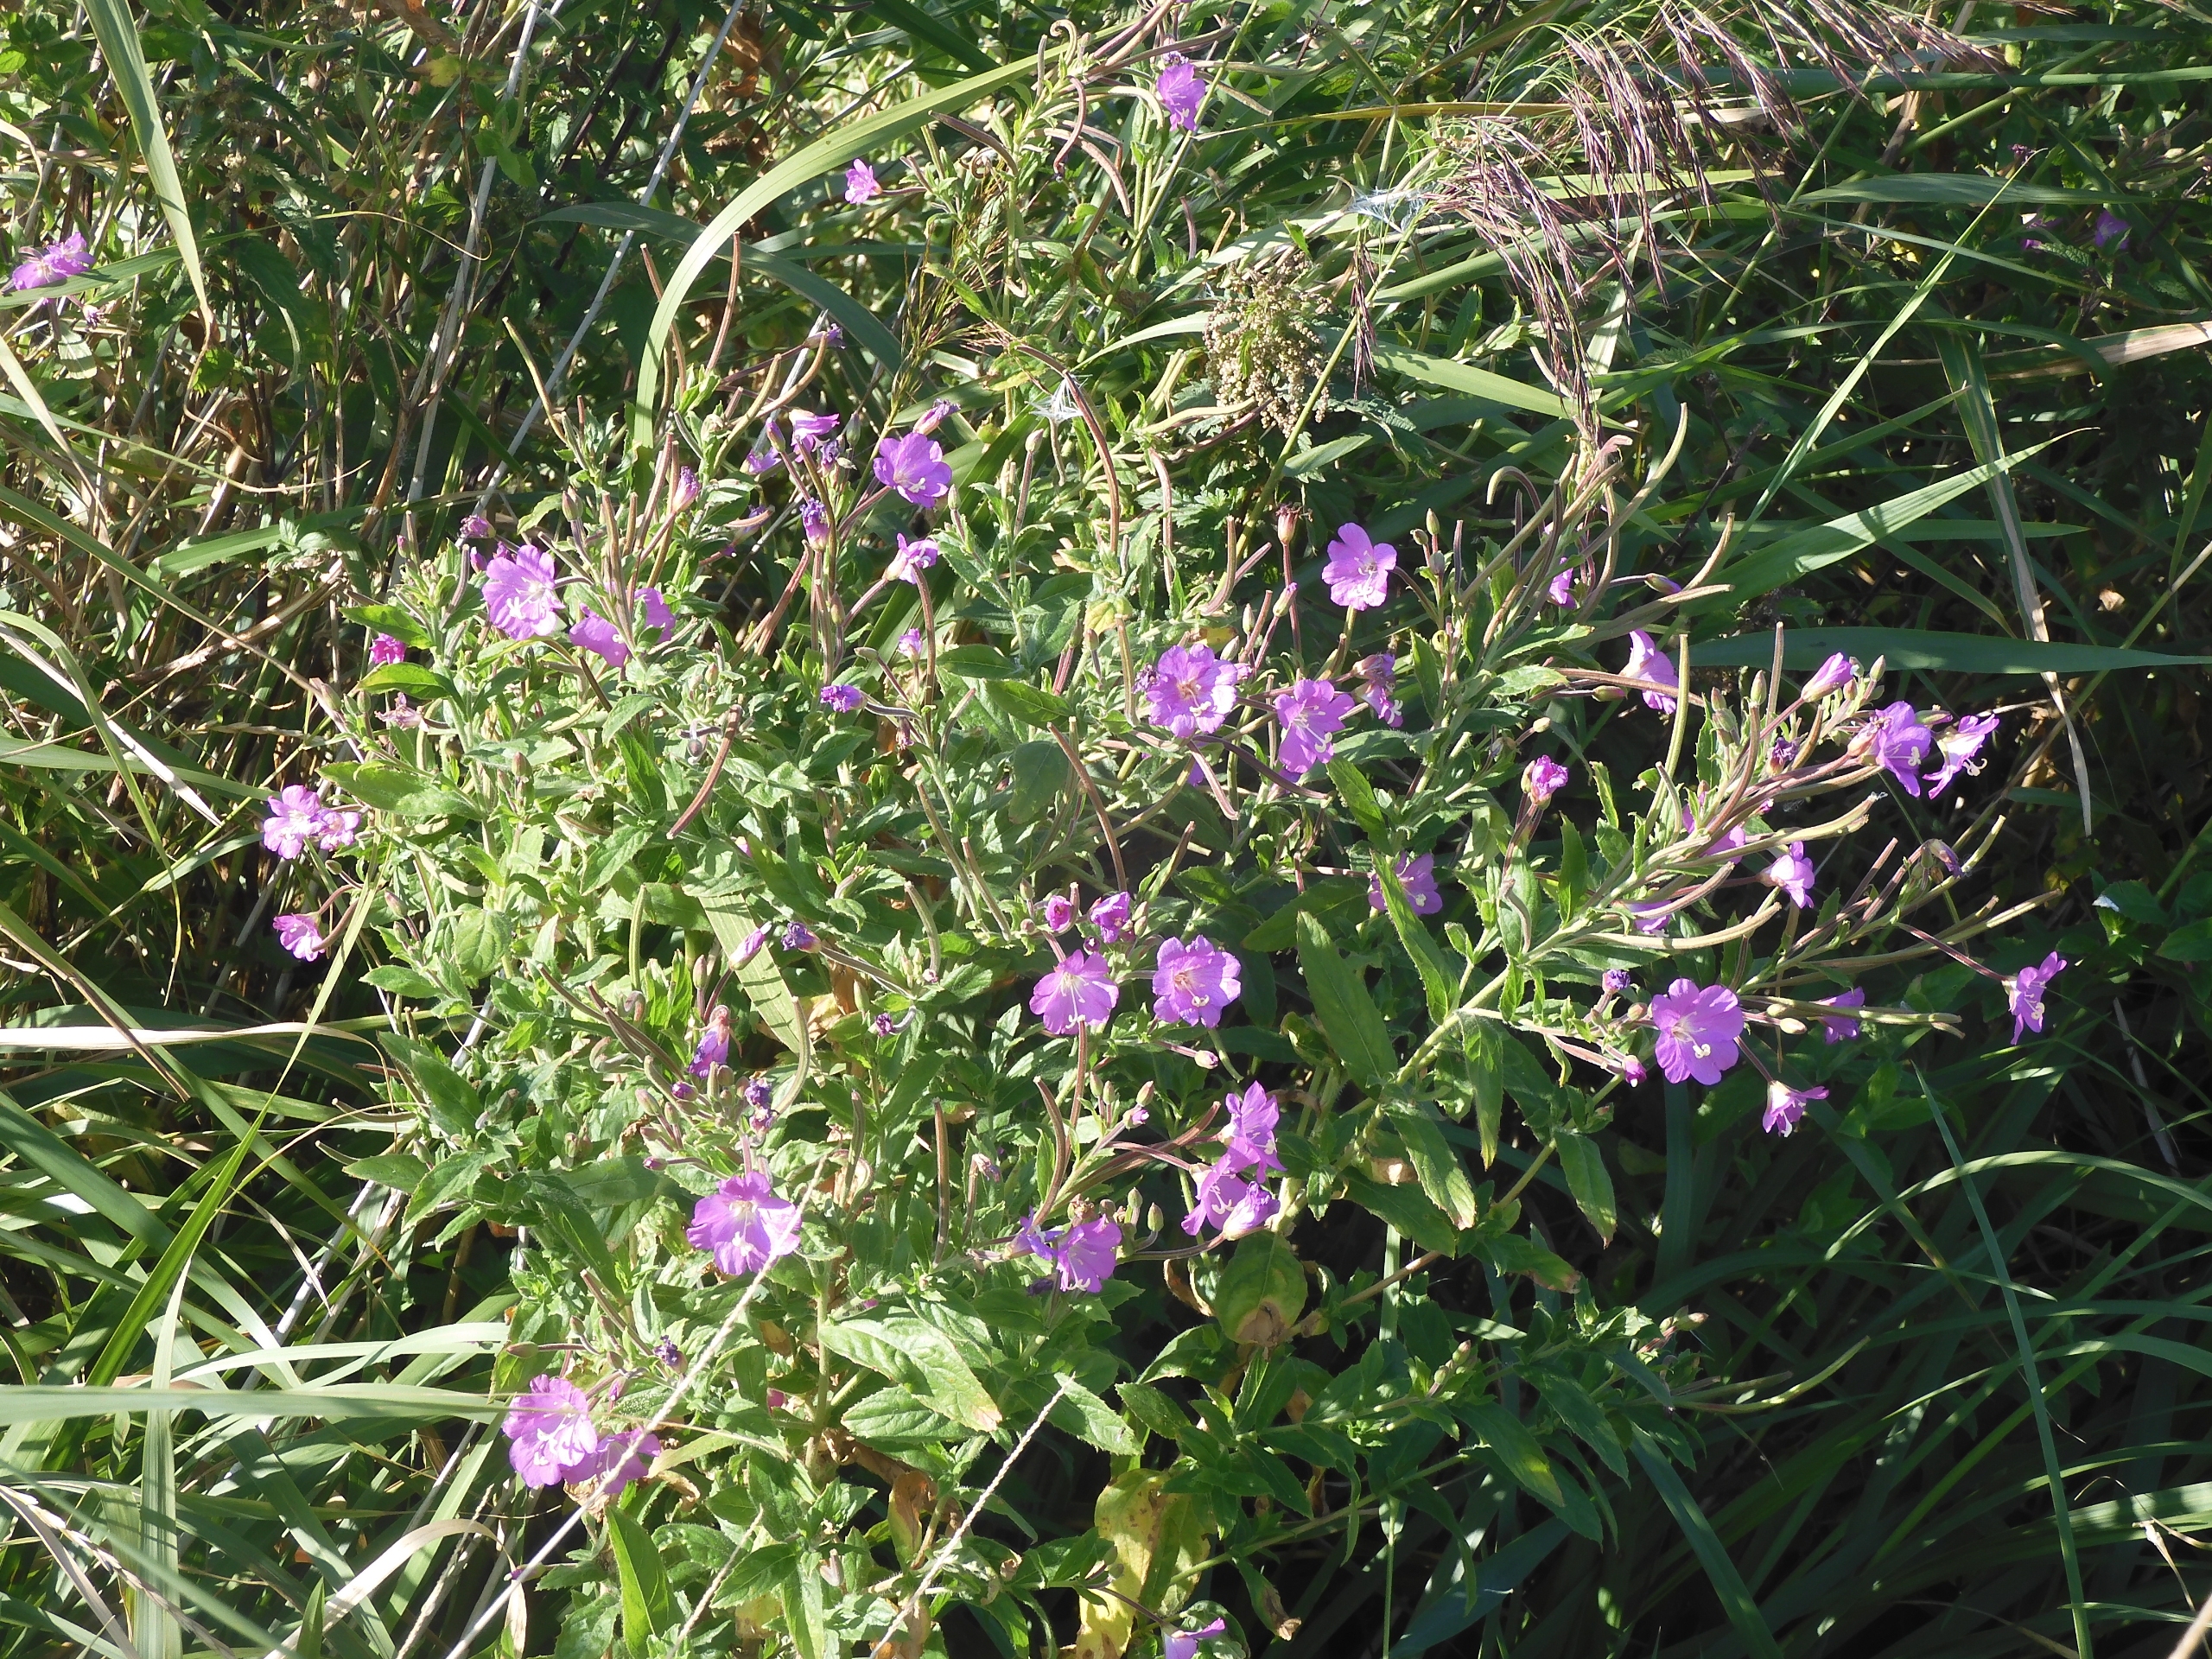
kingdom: Plantae
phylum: Tracheophyta
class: Magnoliopsida
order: Myrtales
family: Onagraceae
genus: Epilobium
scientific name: Epilobium hirsutum
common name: Lådden dueurt
